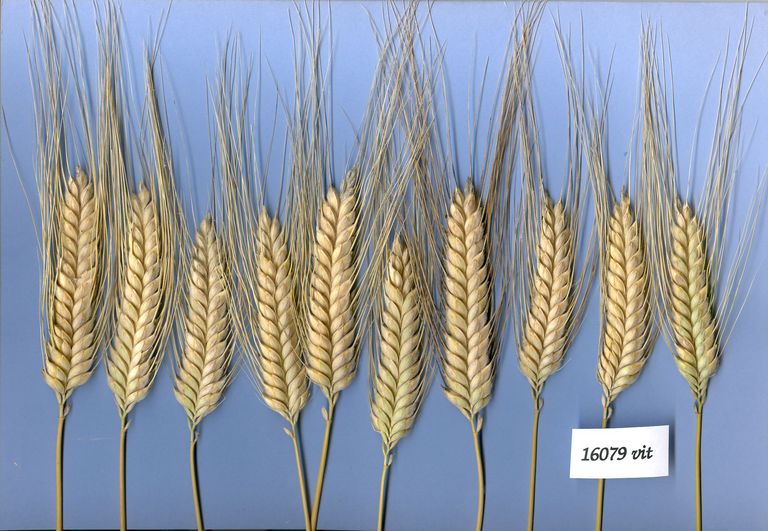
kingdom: Plantae
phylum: Tracheophyta
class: Liliopsida
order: Poales
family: Poaceae
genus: Triticum
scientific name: Triticum turgidum
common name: Rivet wheat
